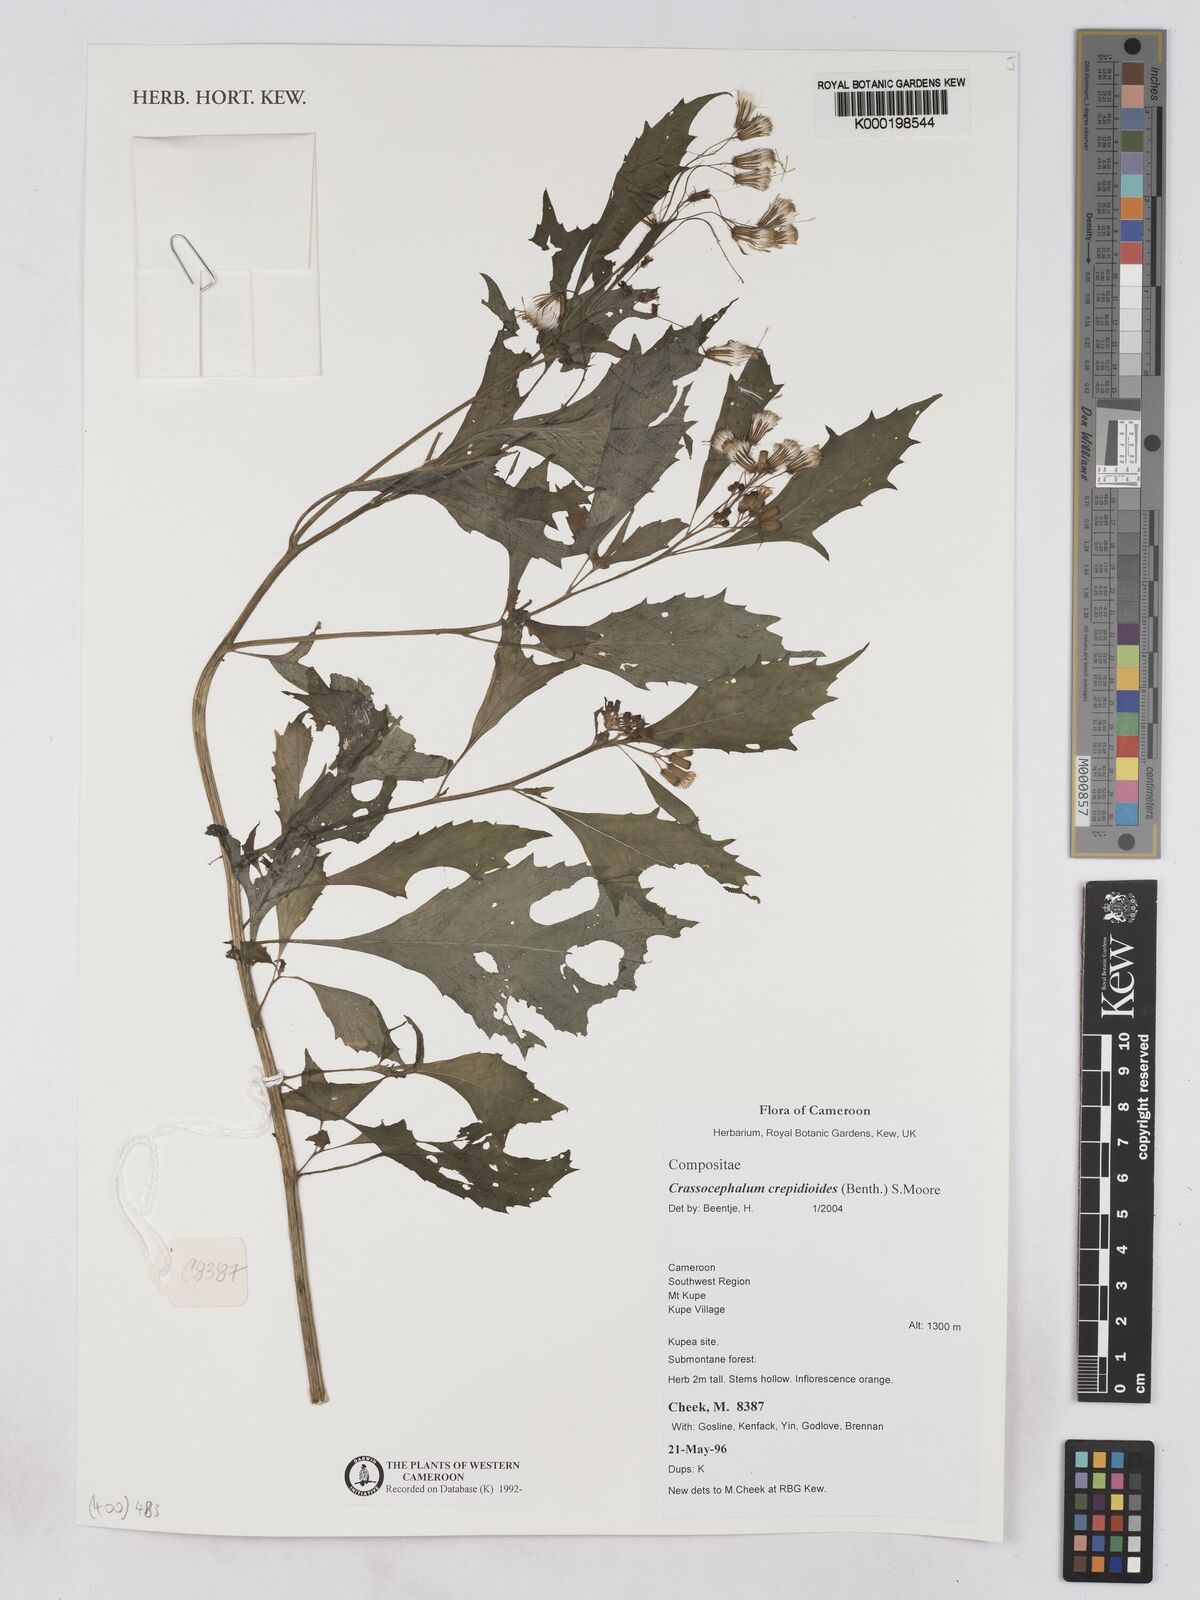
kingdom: Plantae
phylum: Tracheophyta
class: Magnoliopsida
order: Asterales
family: Asteraceae
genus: Crassocephalum
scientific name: Crassocephalum crepidioides
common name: Redflower ragleaf
